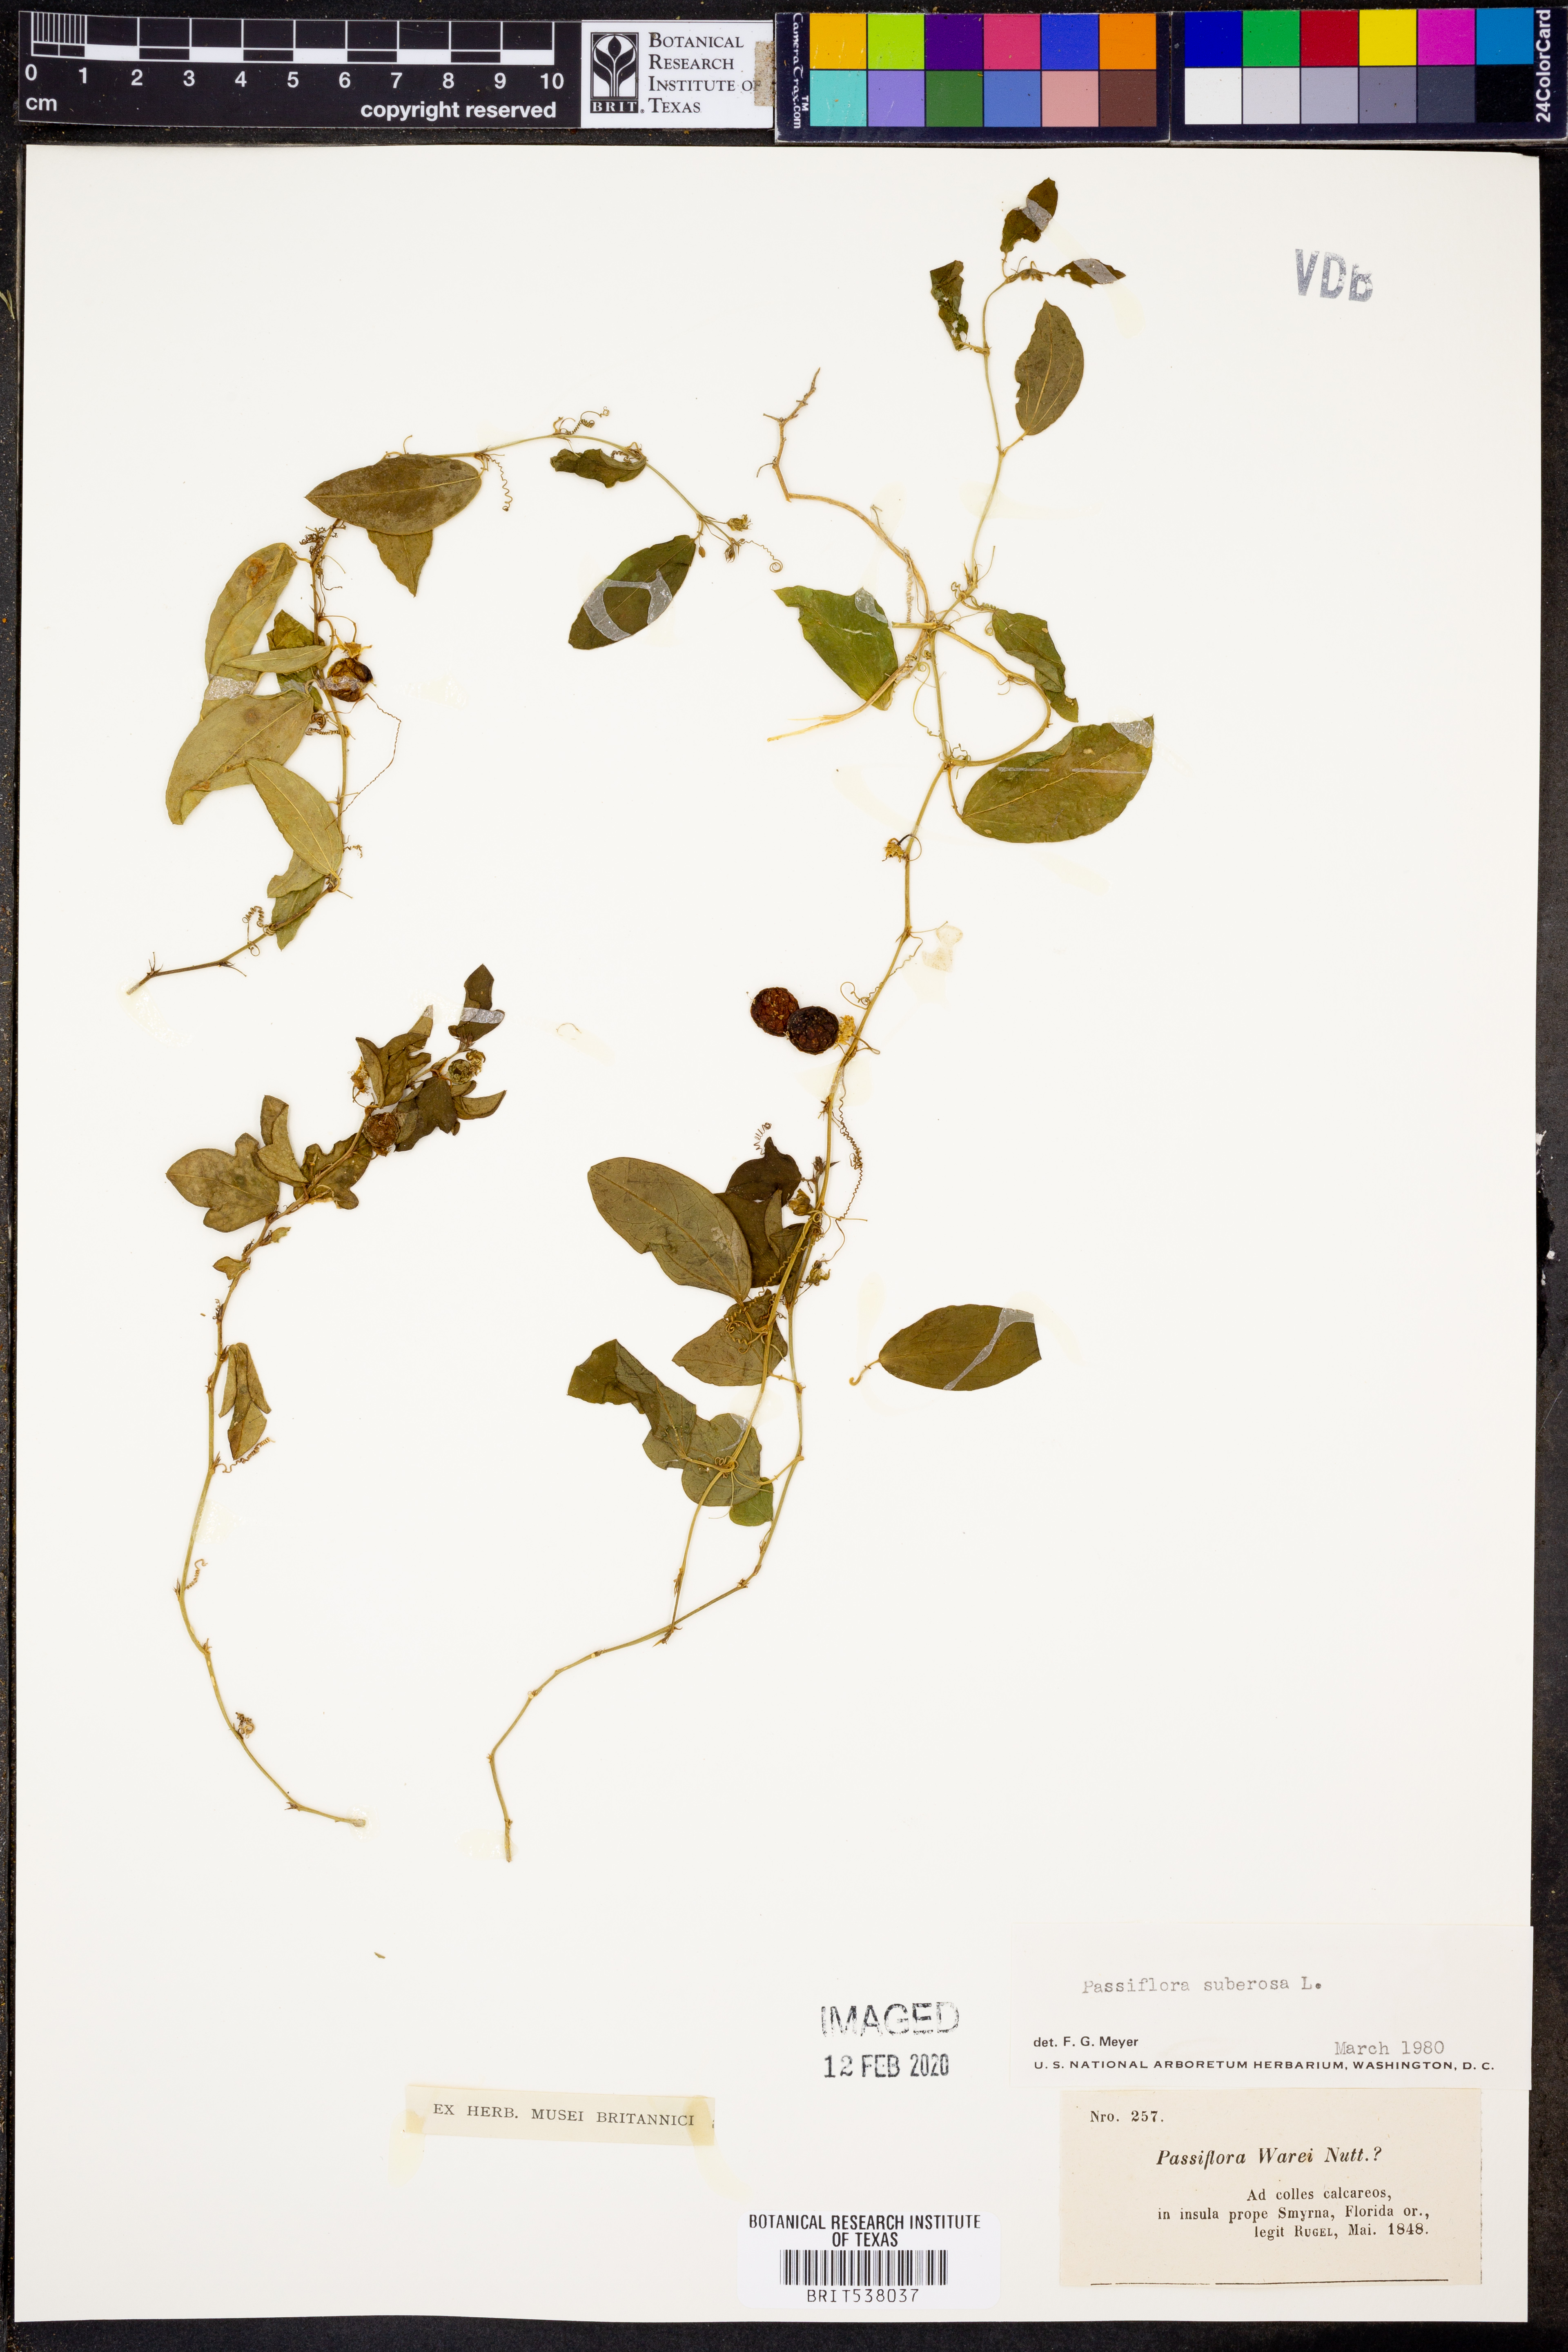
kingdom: Plantae
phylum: Tracheophyta
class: Magnoliopsida
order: Malpighiales
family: Passifloraceae
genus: Passiflora
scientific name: Passiflora suberosa
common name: Wild passionfruit
